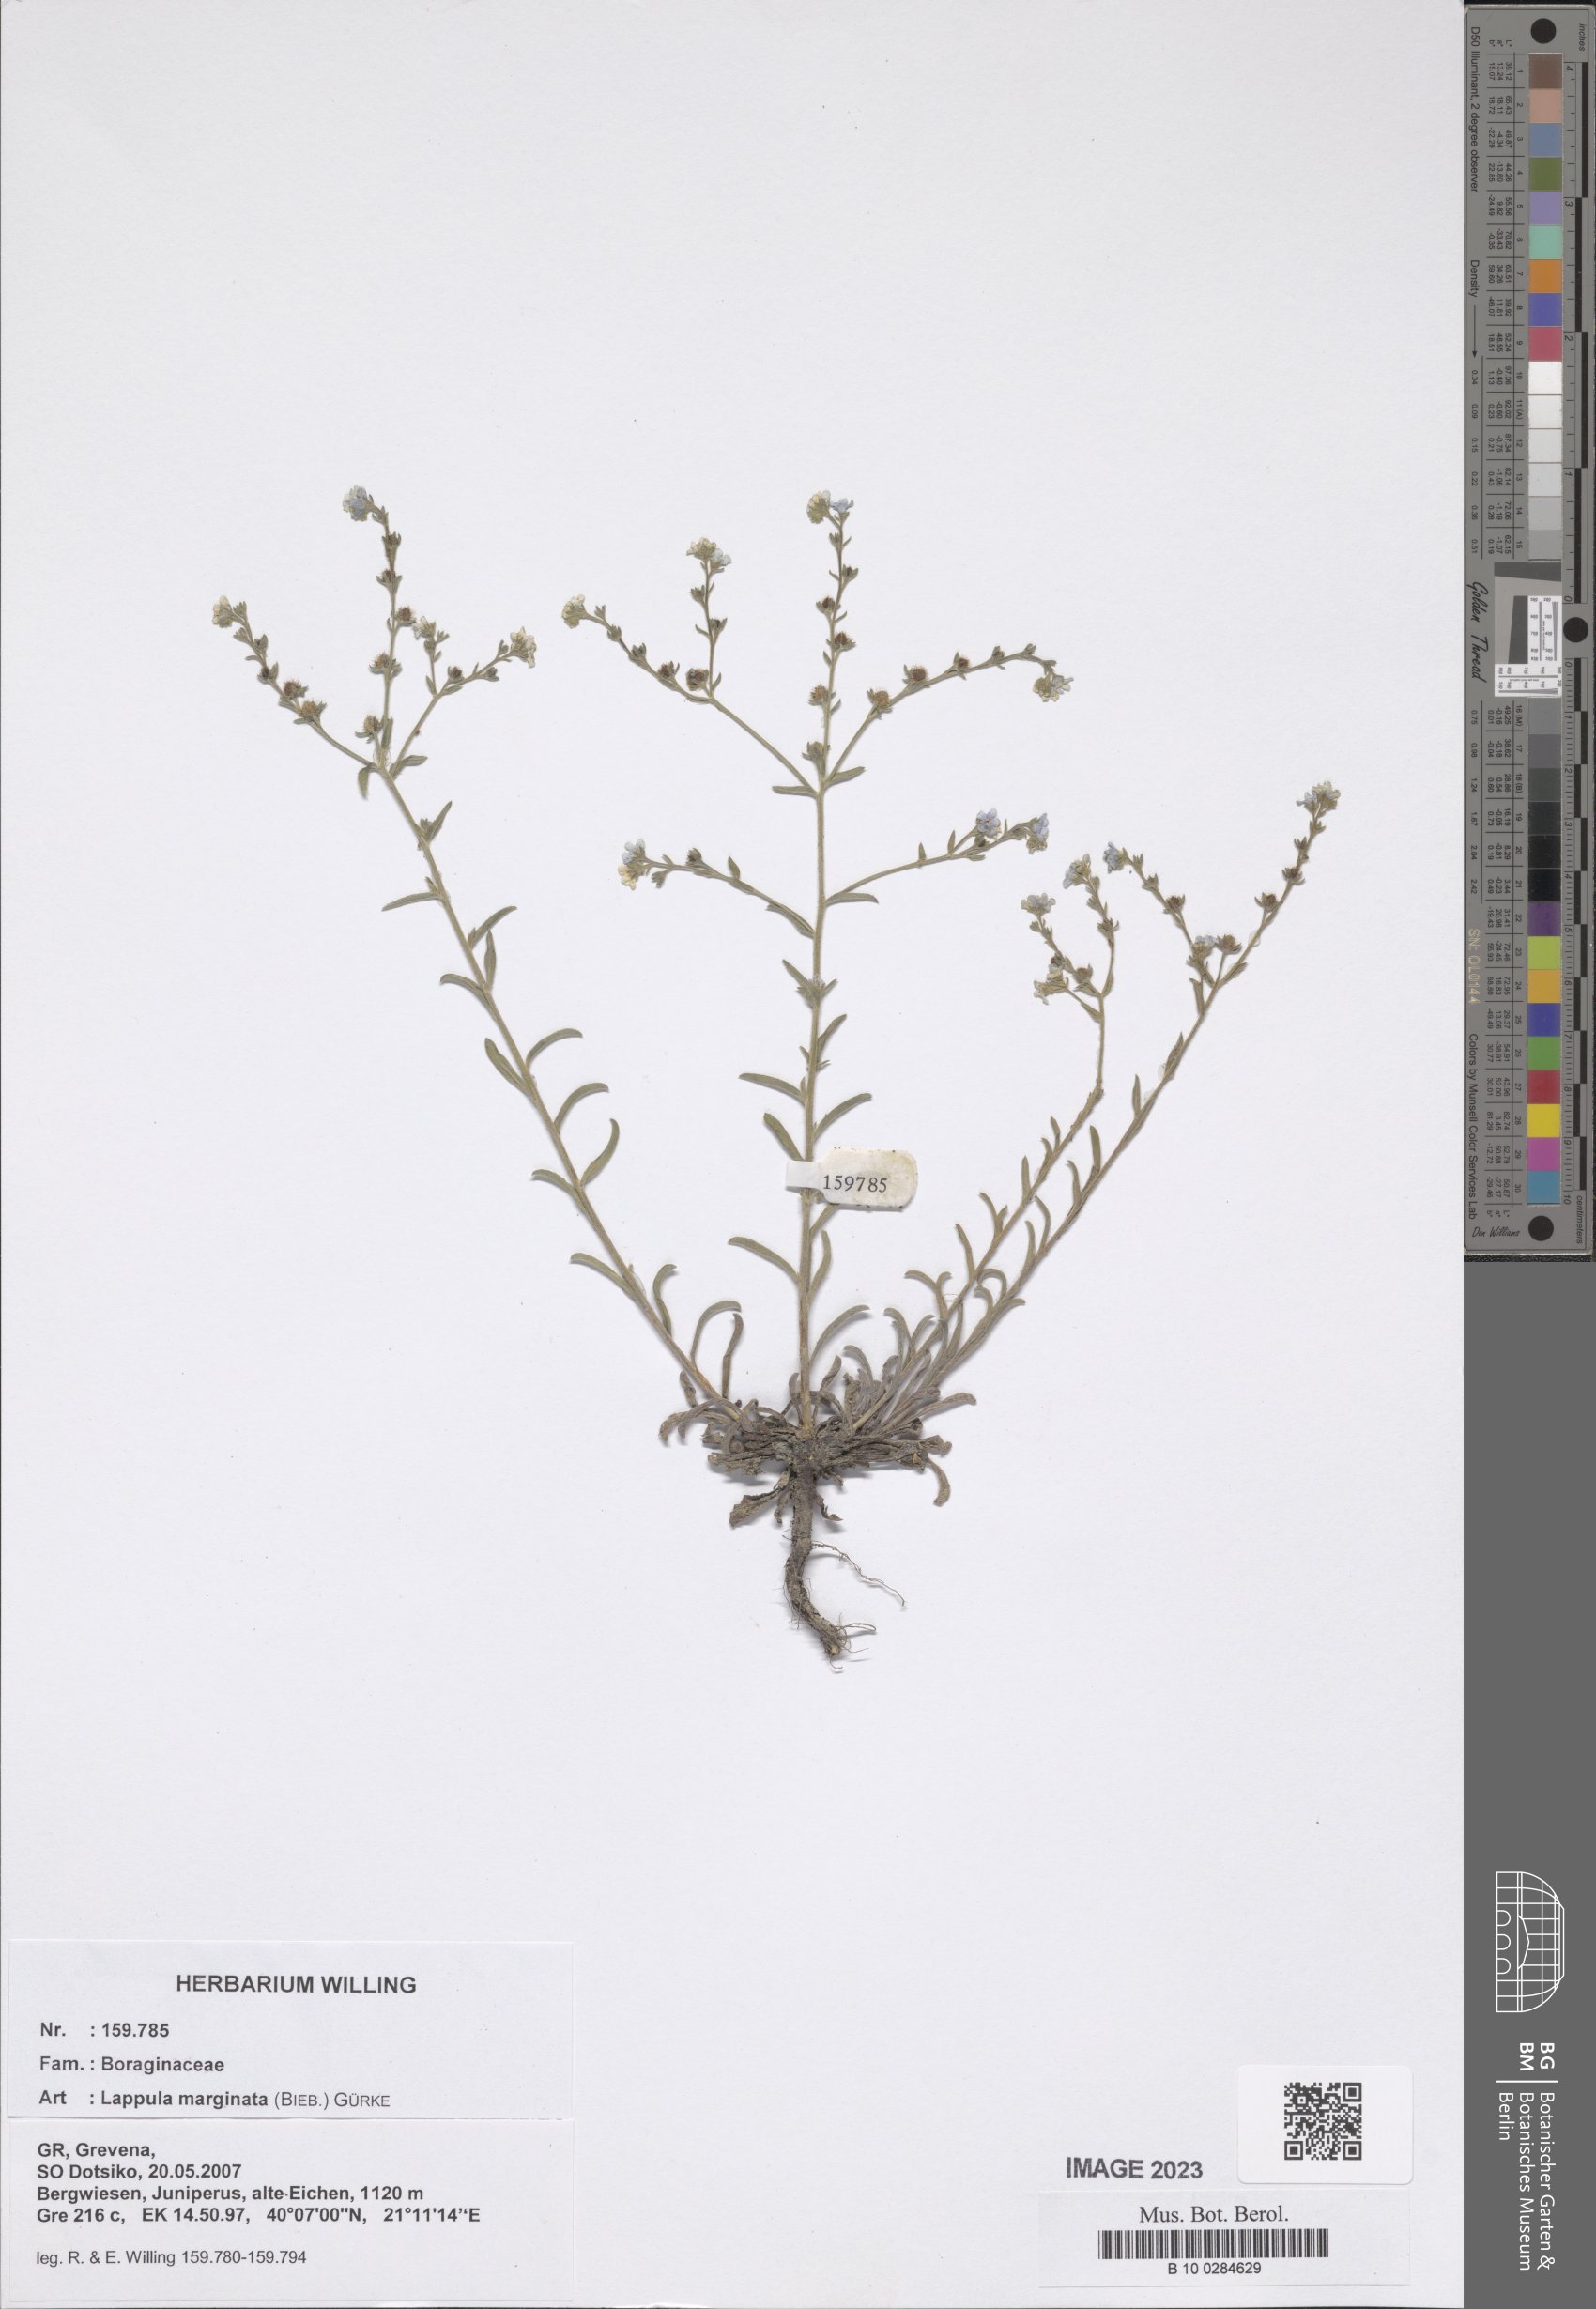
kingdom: Plantae
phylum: Tracheophyta
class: Magnoliopsida
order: Boraginales
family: Boraginaceae
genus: Lappula
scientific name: Lappula marginata
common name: Margined stickseed
